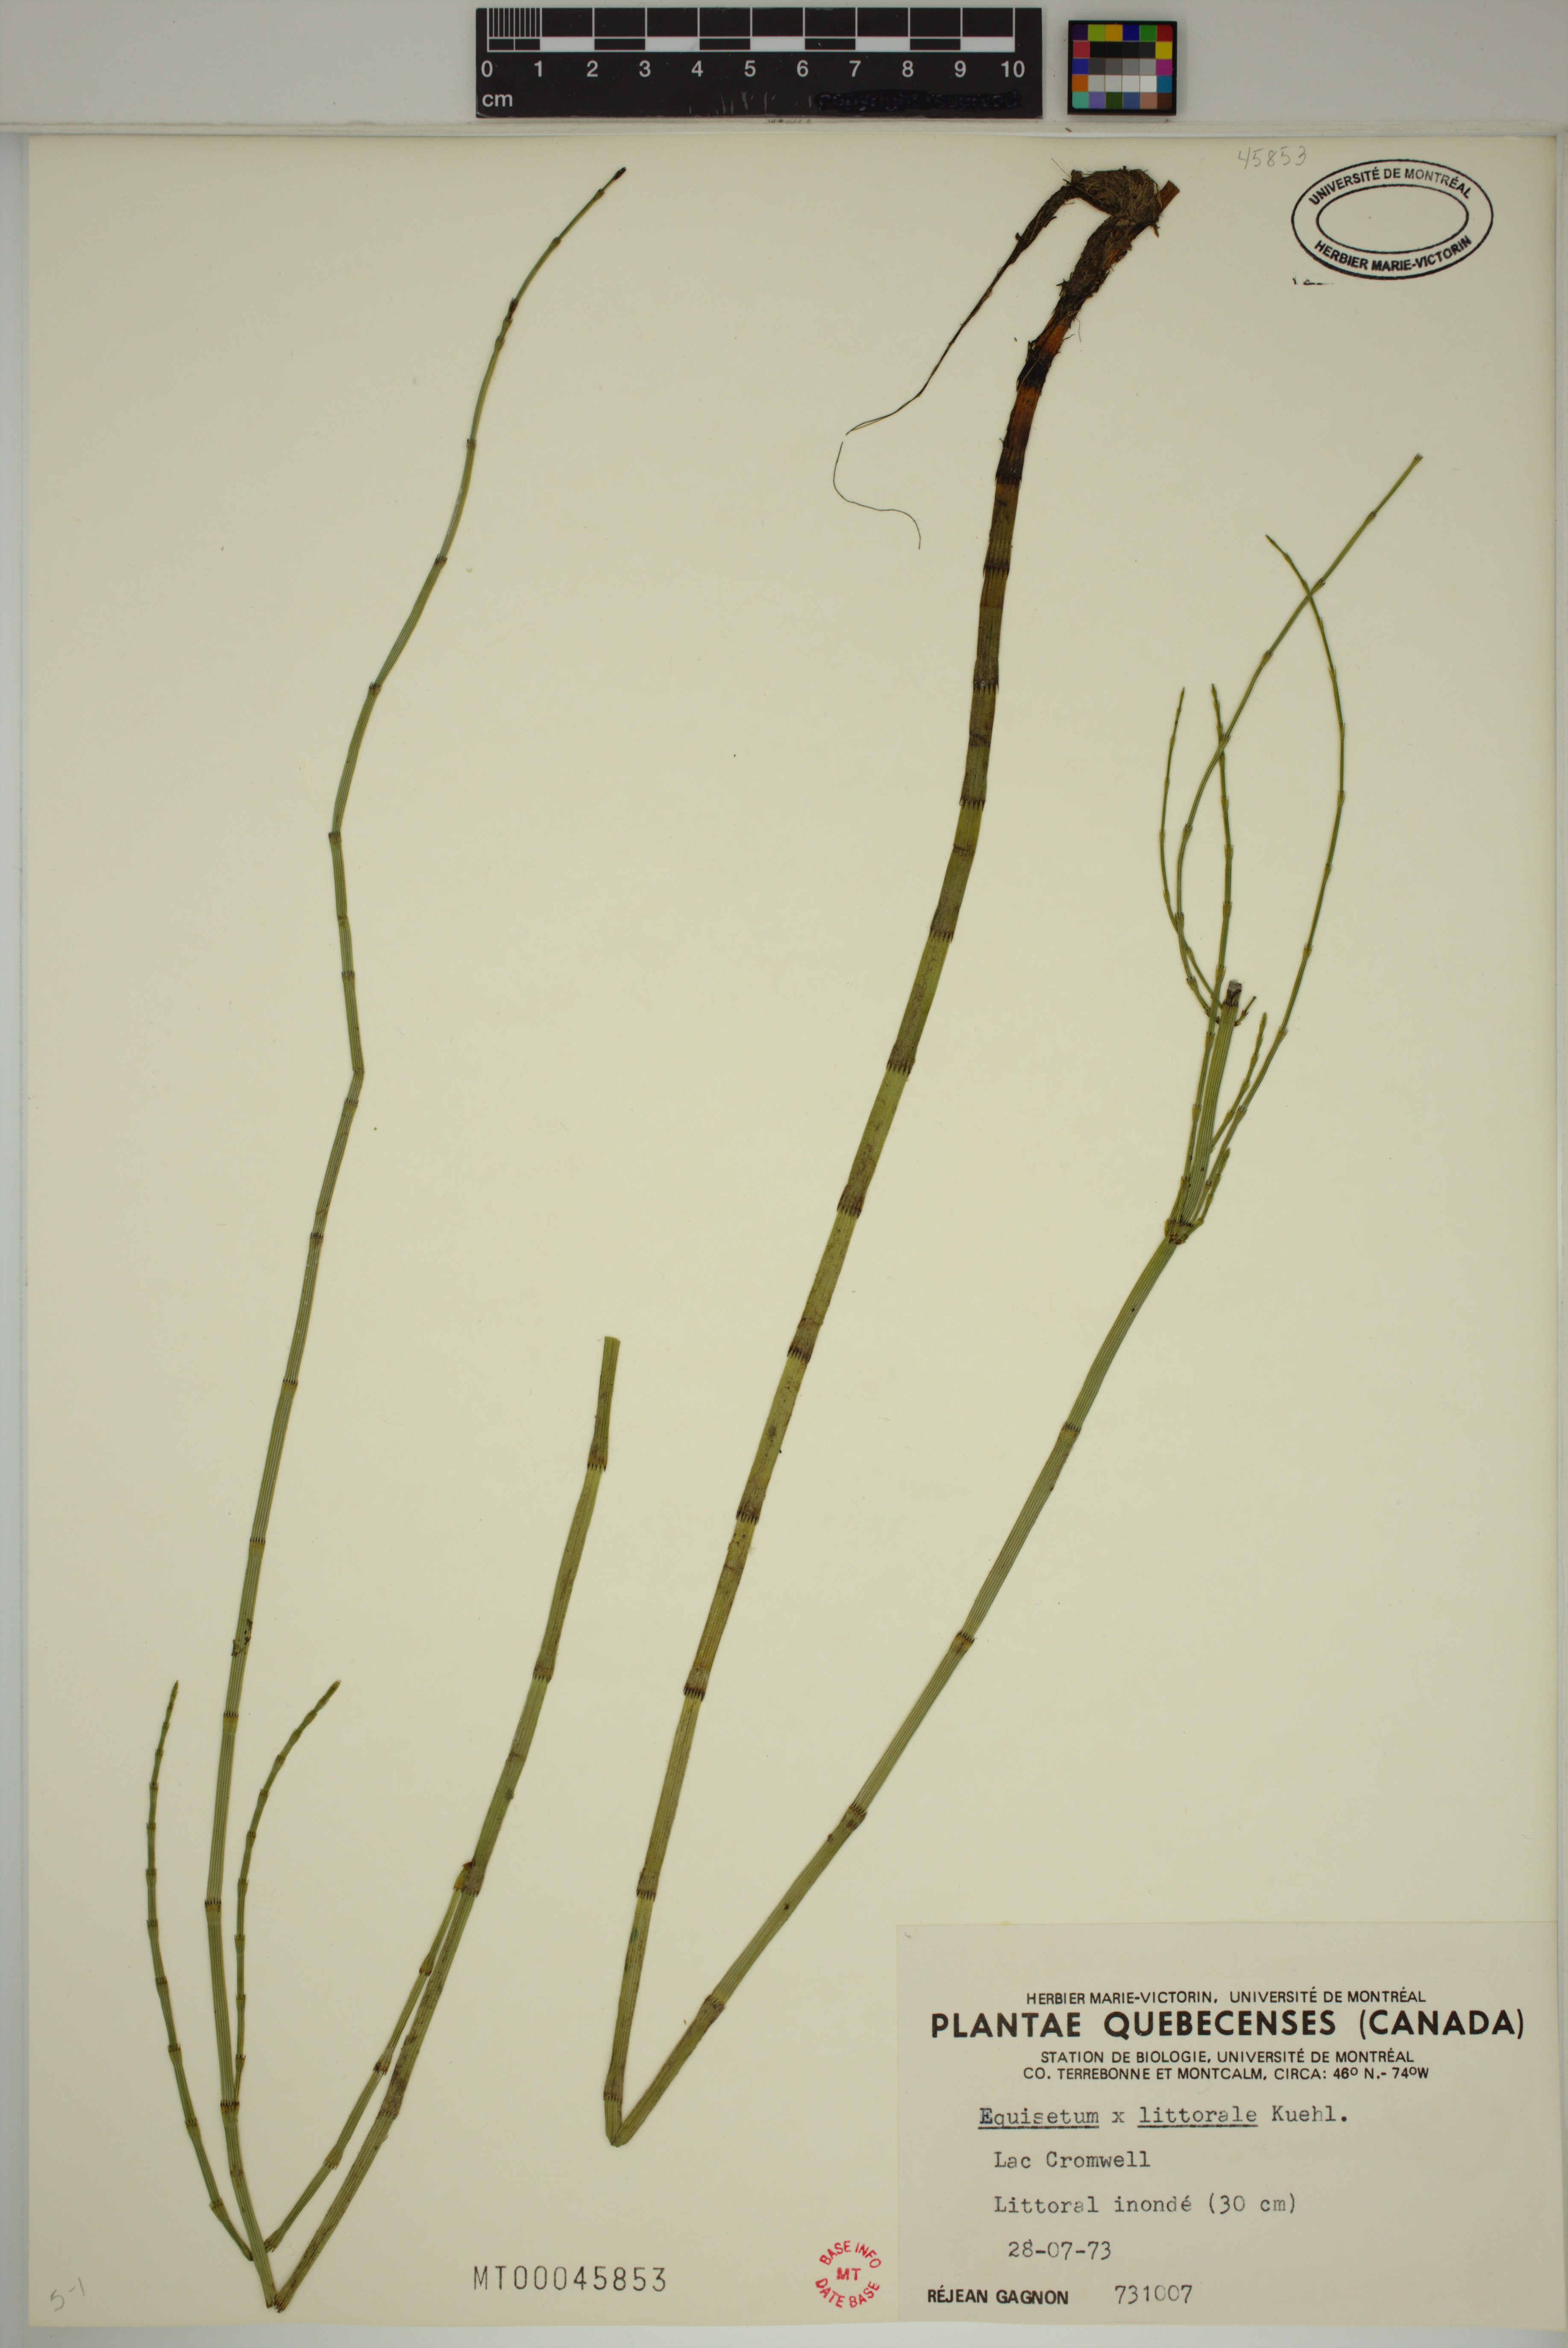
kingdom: Plantae
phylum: Tracheophyta
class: Polypodiopsida
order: Equisetales
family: Equisetaceae
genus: Equisetum
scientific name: Equisetum litorale
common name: Littoral horsetail
